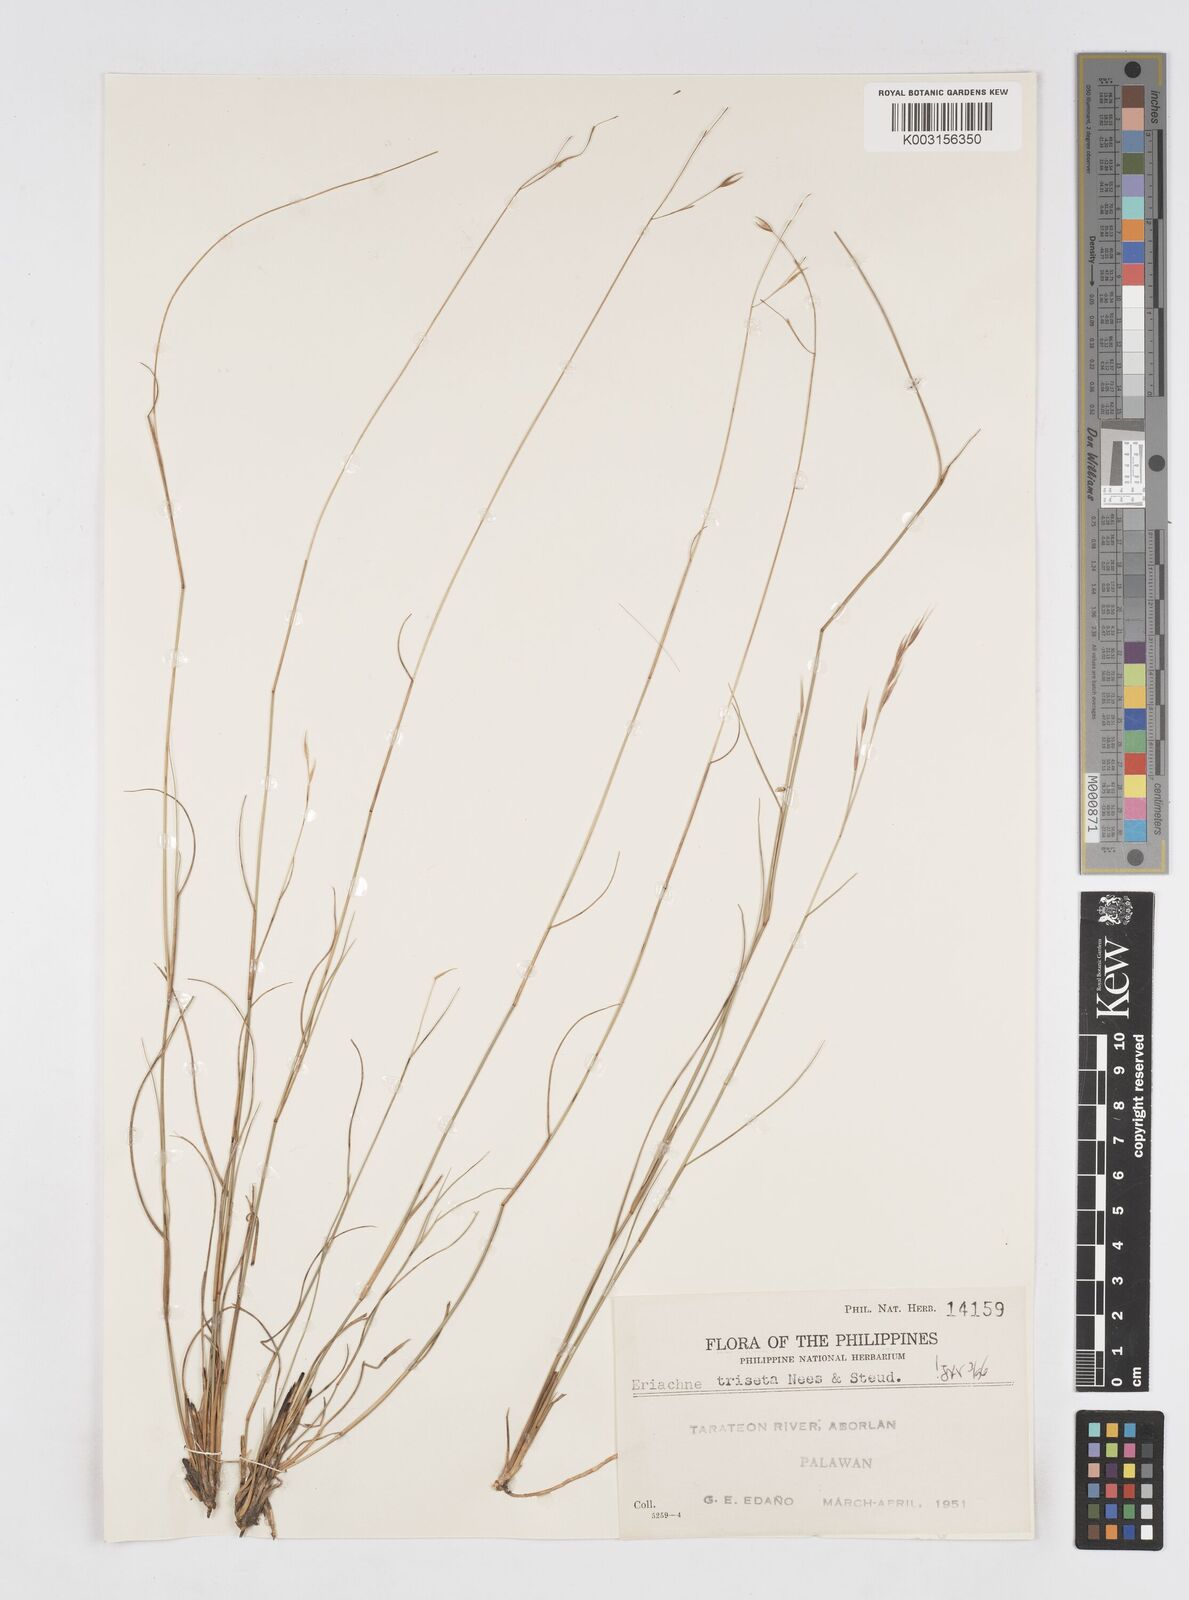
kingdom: Plantae
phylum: Tracheophyta
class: Liliopsida
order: Poales
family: Poaceae
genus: Eriachne
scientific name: Eriachne triseta
